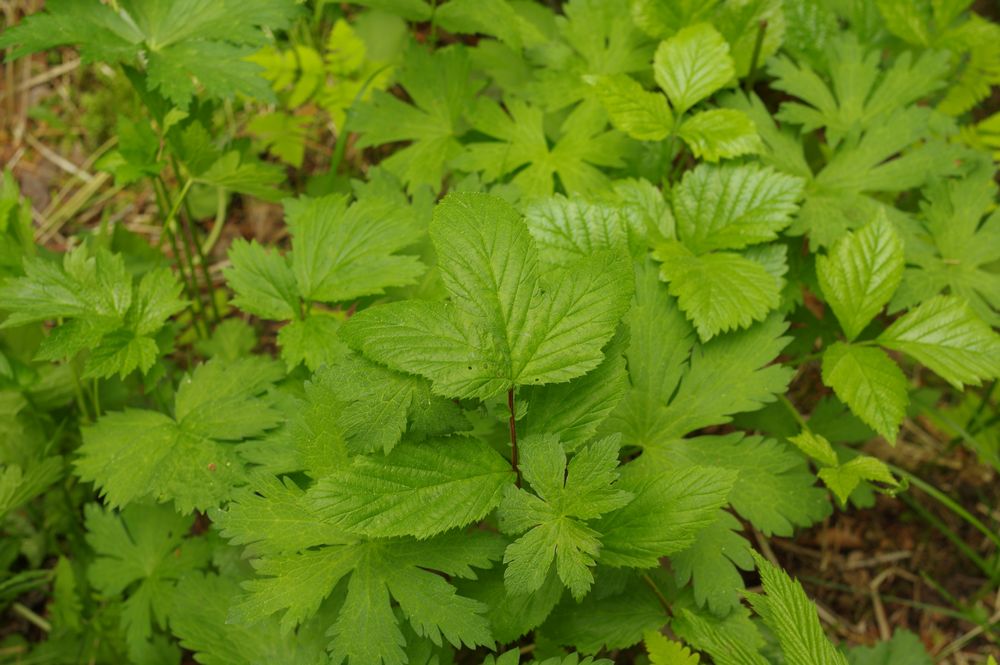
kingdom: Plantae
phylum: Tracheophyta
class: Magnoliopsida
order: Rosales
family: Rosaceae
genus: Filipendula
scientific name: Filipendula ulmaria
